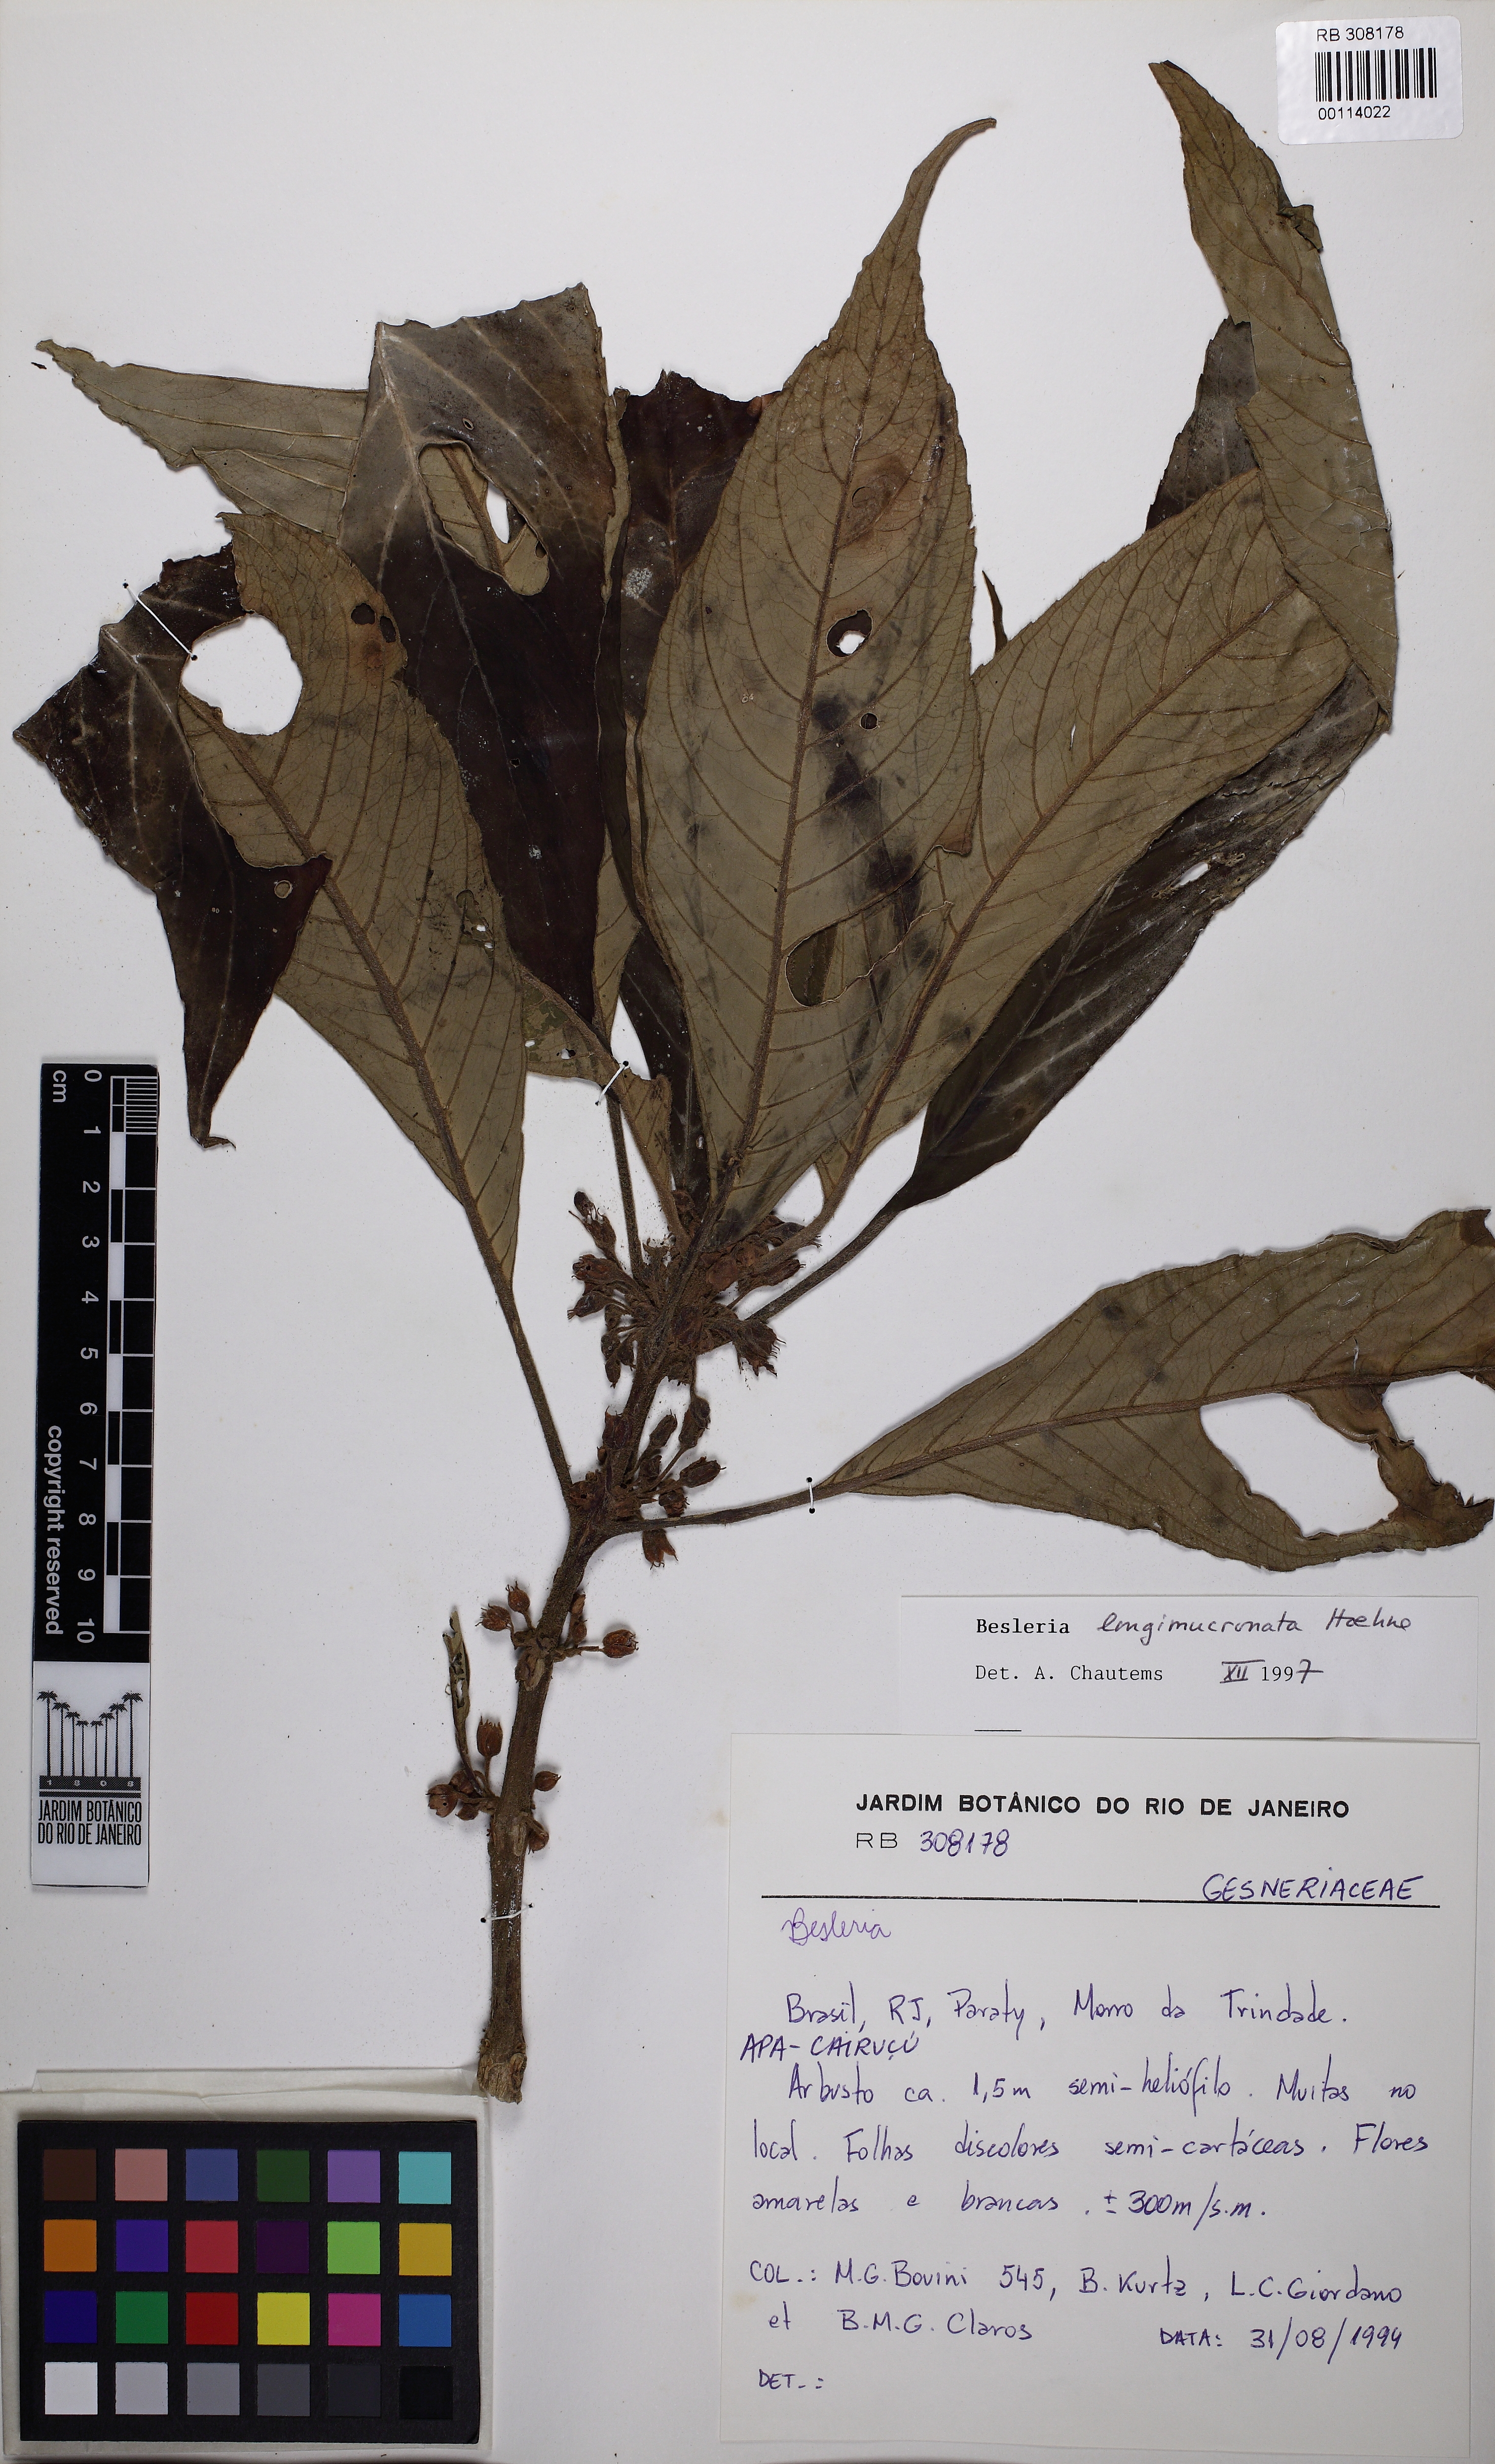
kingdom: Plantae
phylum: Tracheophyta
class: Magnoliopsida
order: Lamiales
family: Gesneriaceae
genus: Besleria
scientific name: Besleria longimucronata
